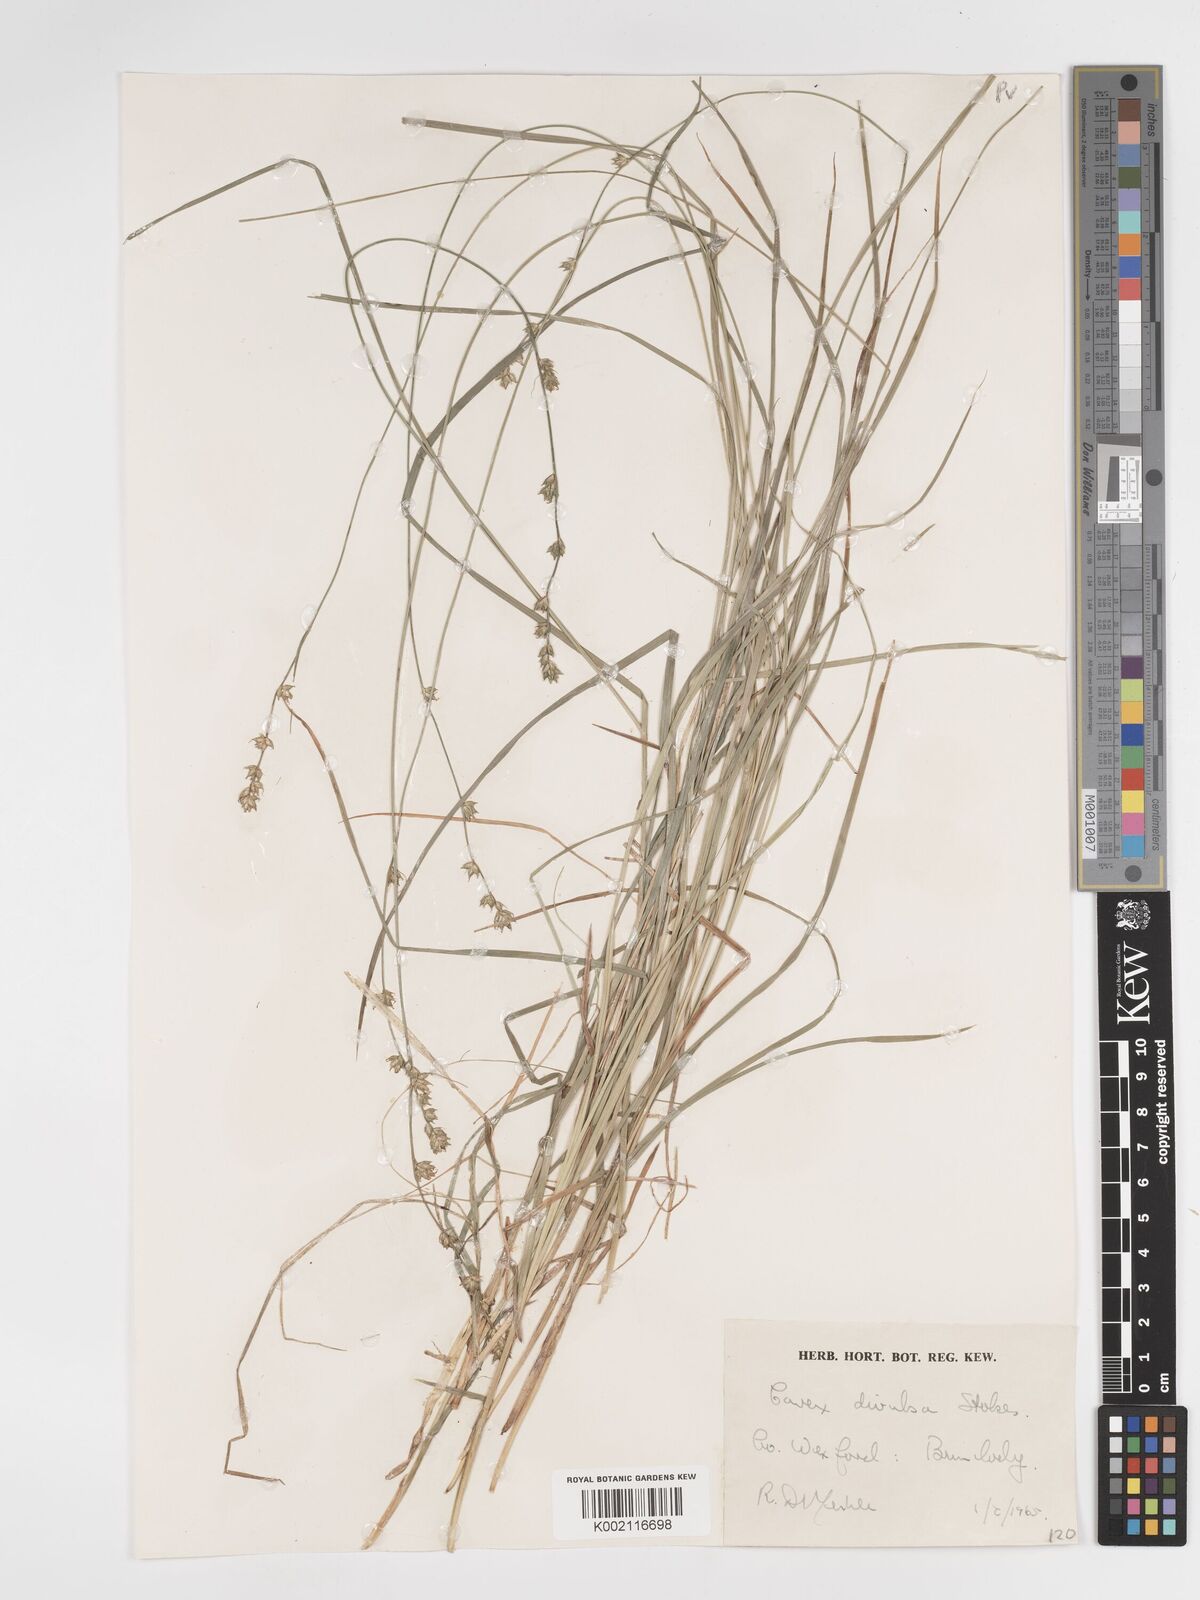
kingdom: Plantae
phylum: Tracheophyta
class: Liliopsida
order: Poales
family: Cyperaceae
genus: Carex
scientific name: Carex divulsa
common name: Grassland sedge
